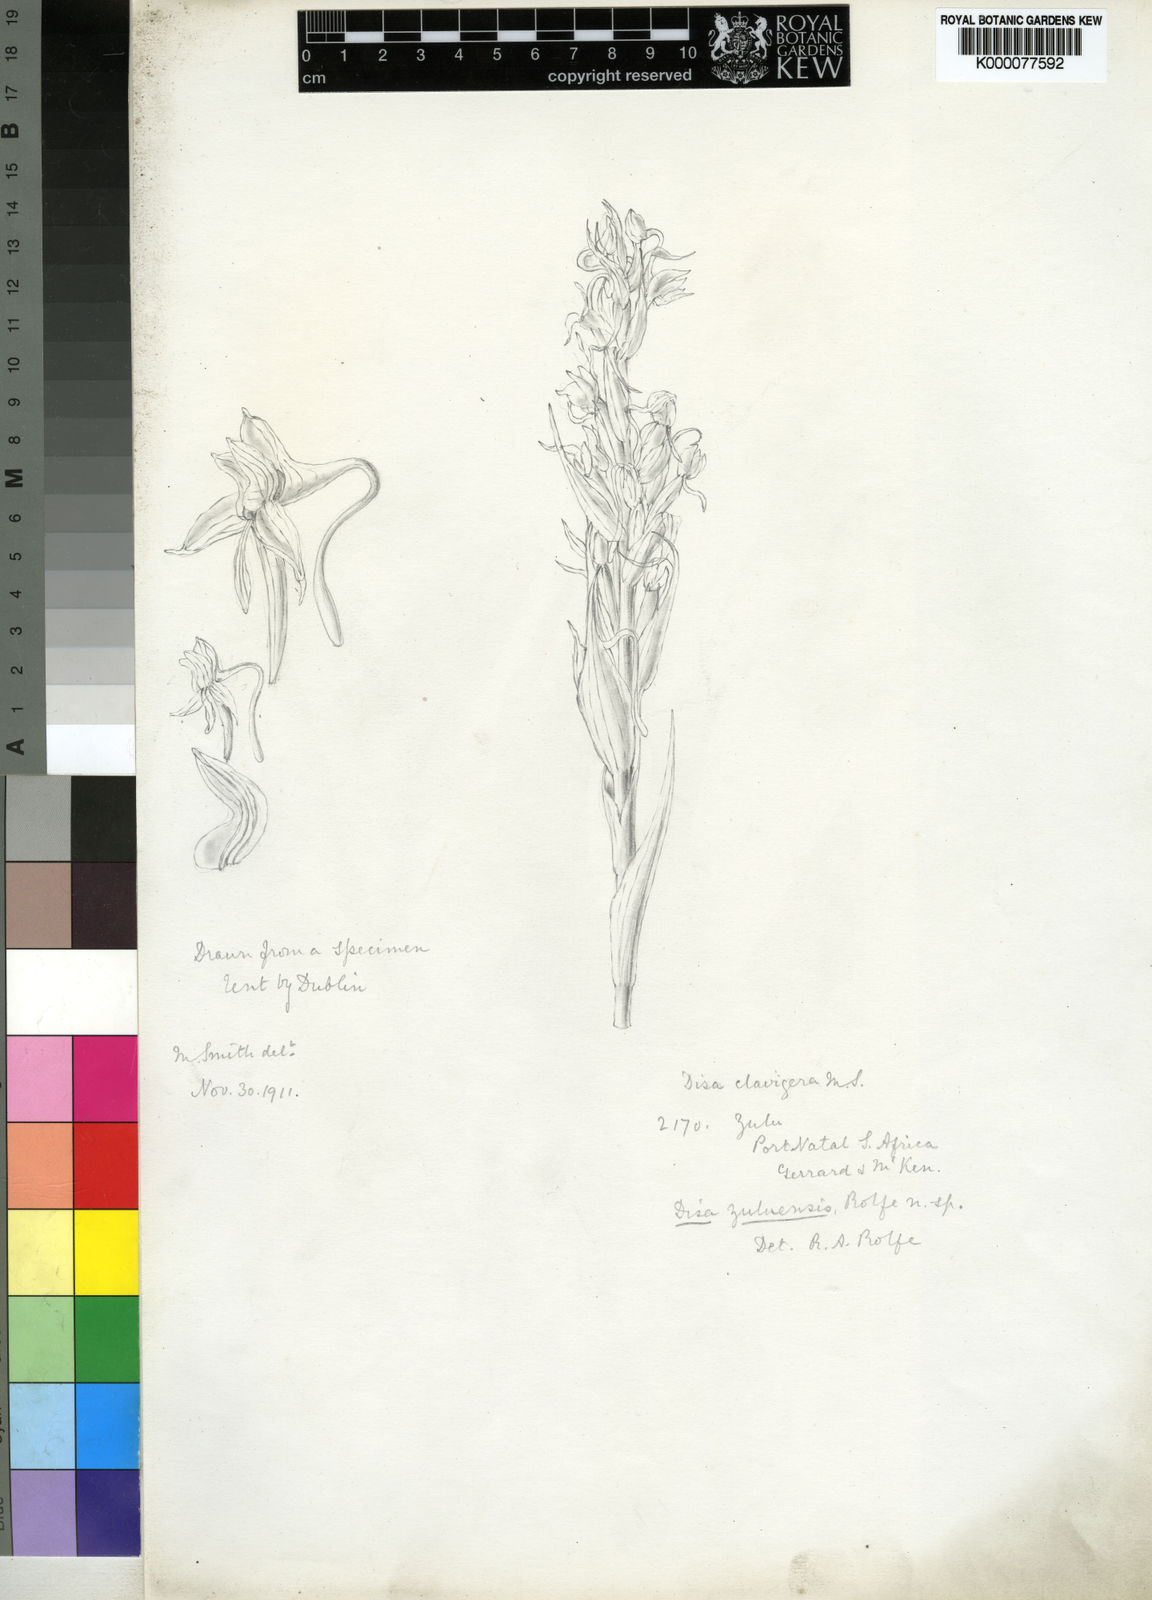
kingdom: Plantae
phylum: Tracheophyta
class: Liliopsida
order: Asparagales
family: Orchidaceae
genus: Disa
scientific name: Disa zuluensis
